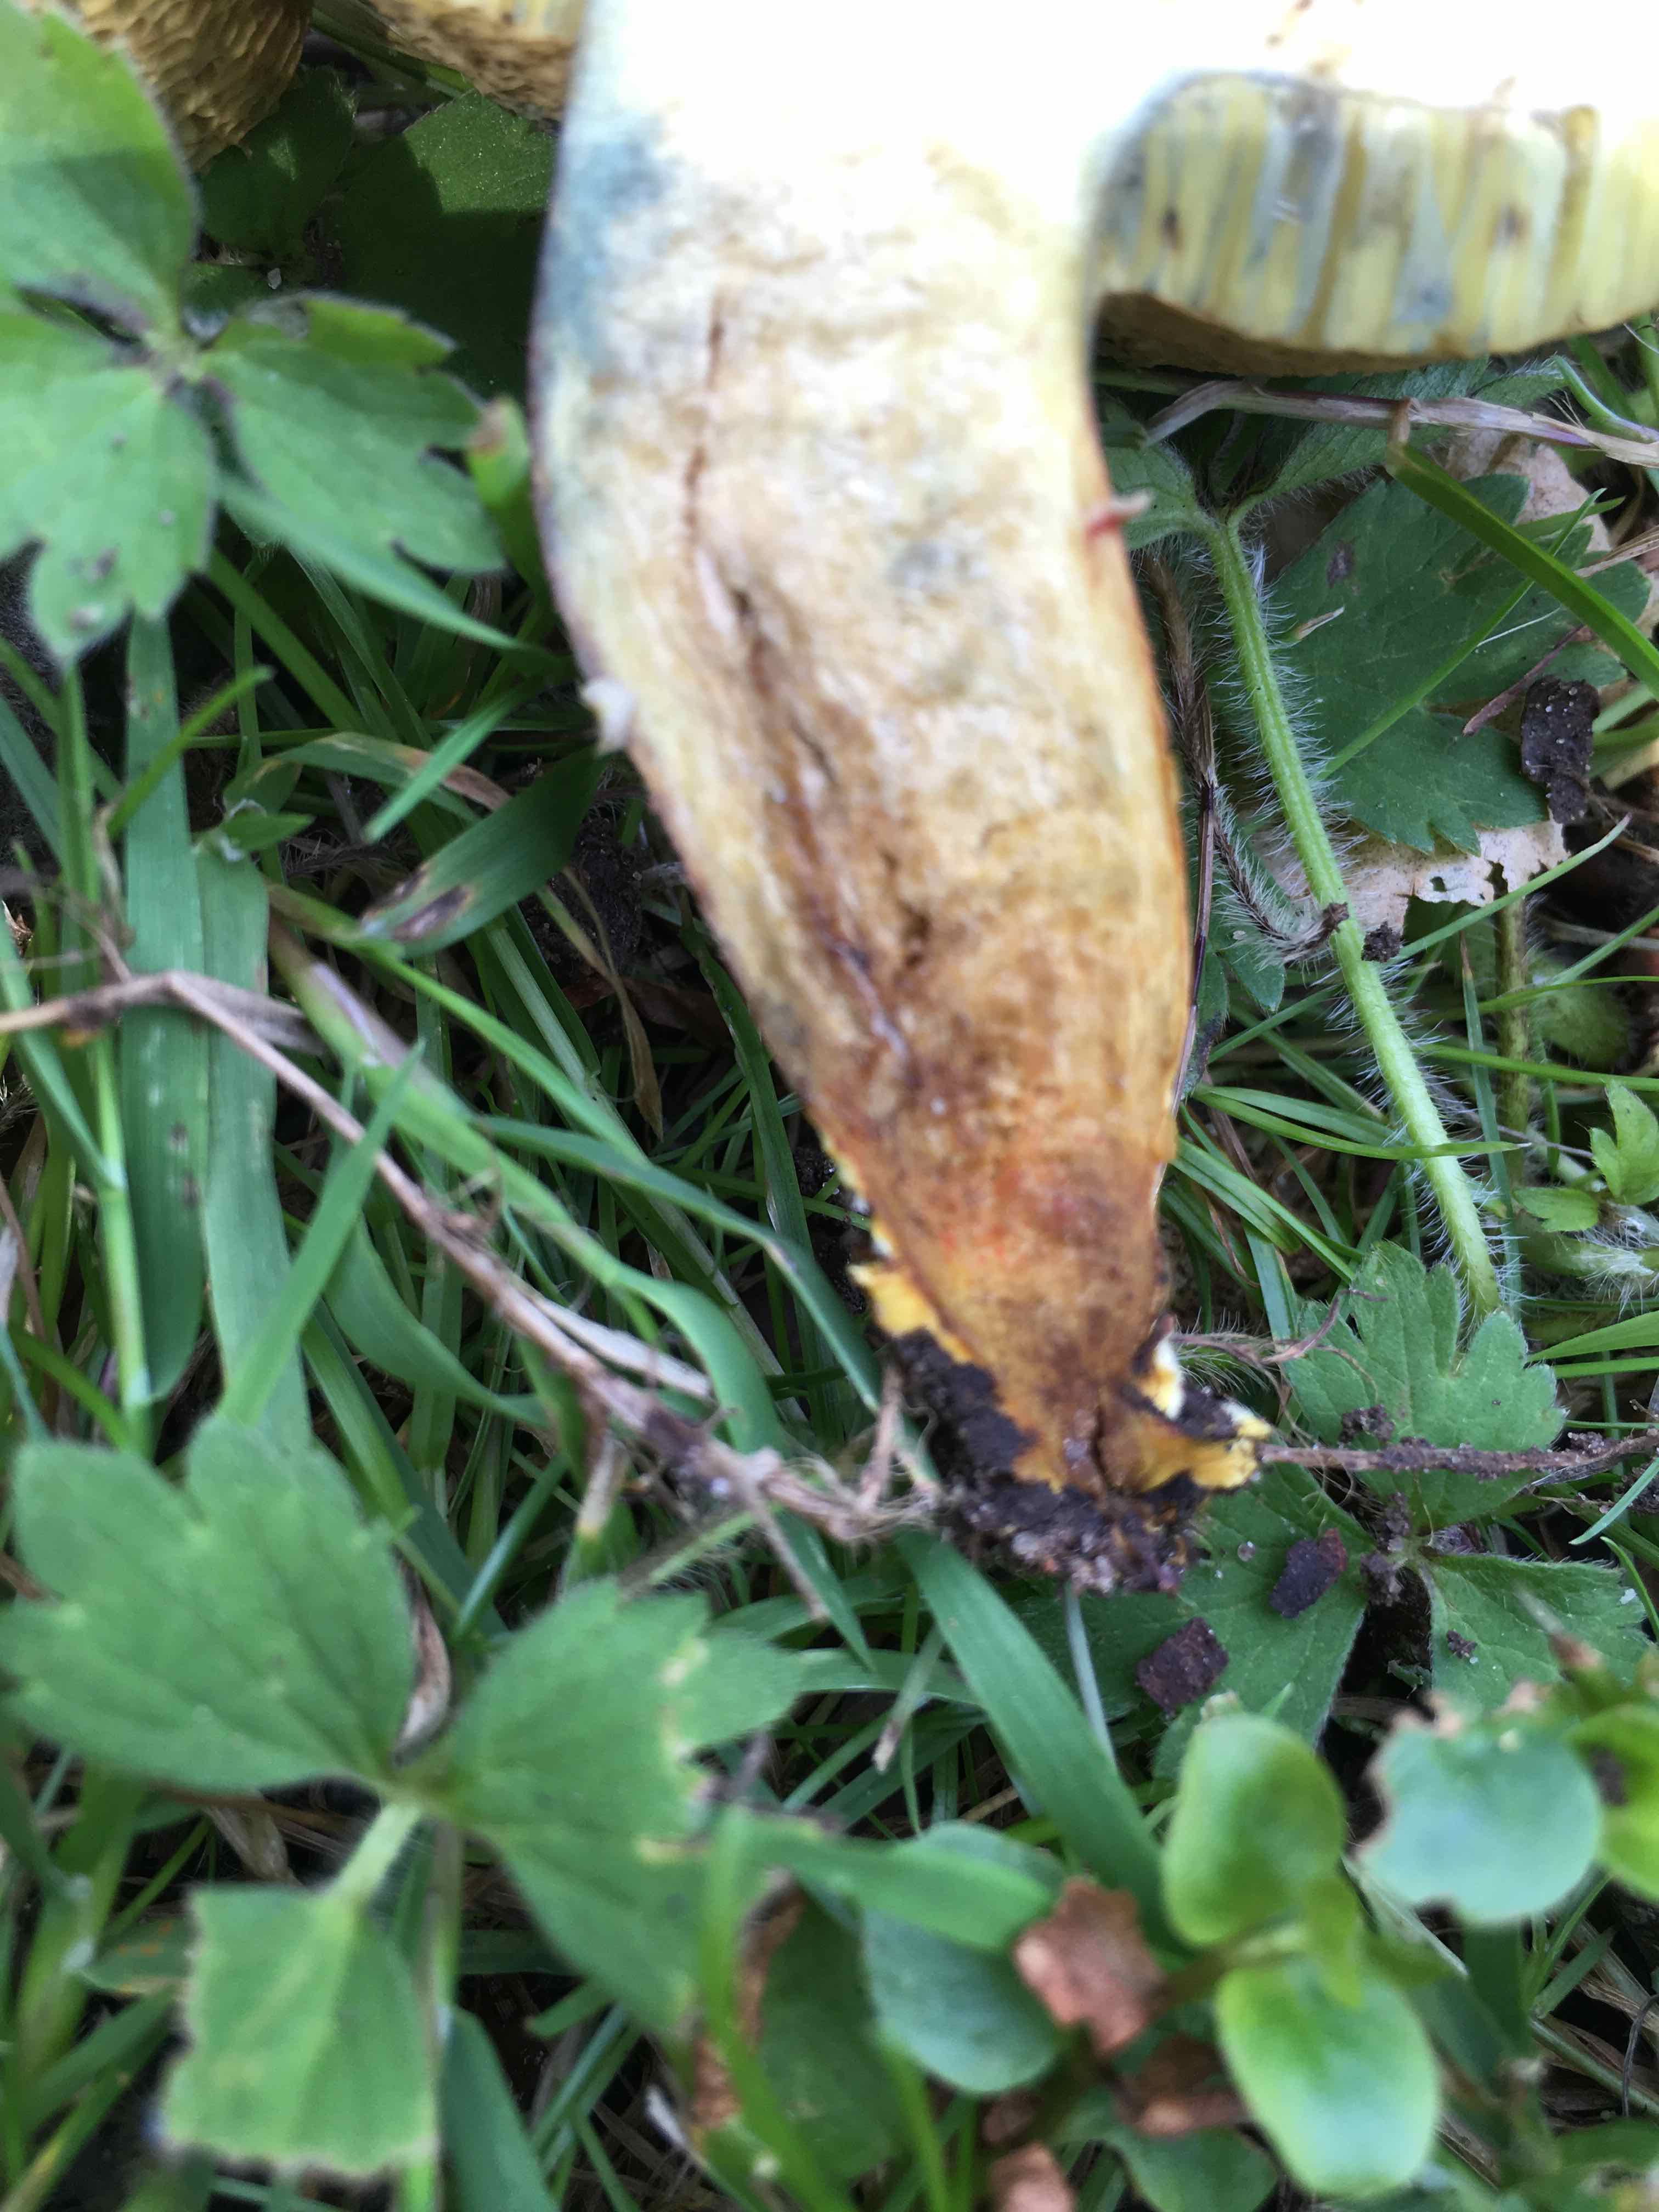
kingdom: Fungi
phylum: Basidiomycota
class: Agaricomycetes
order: Boletales
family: Boletaceae
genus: Hortiboletus
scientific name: Hortiboletus rubellus
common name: blodrød rørhat
